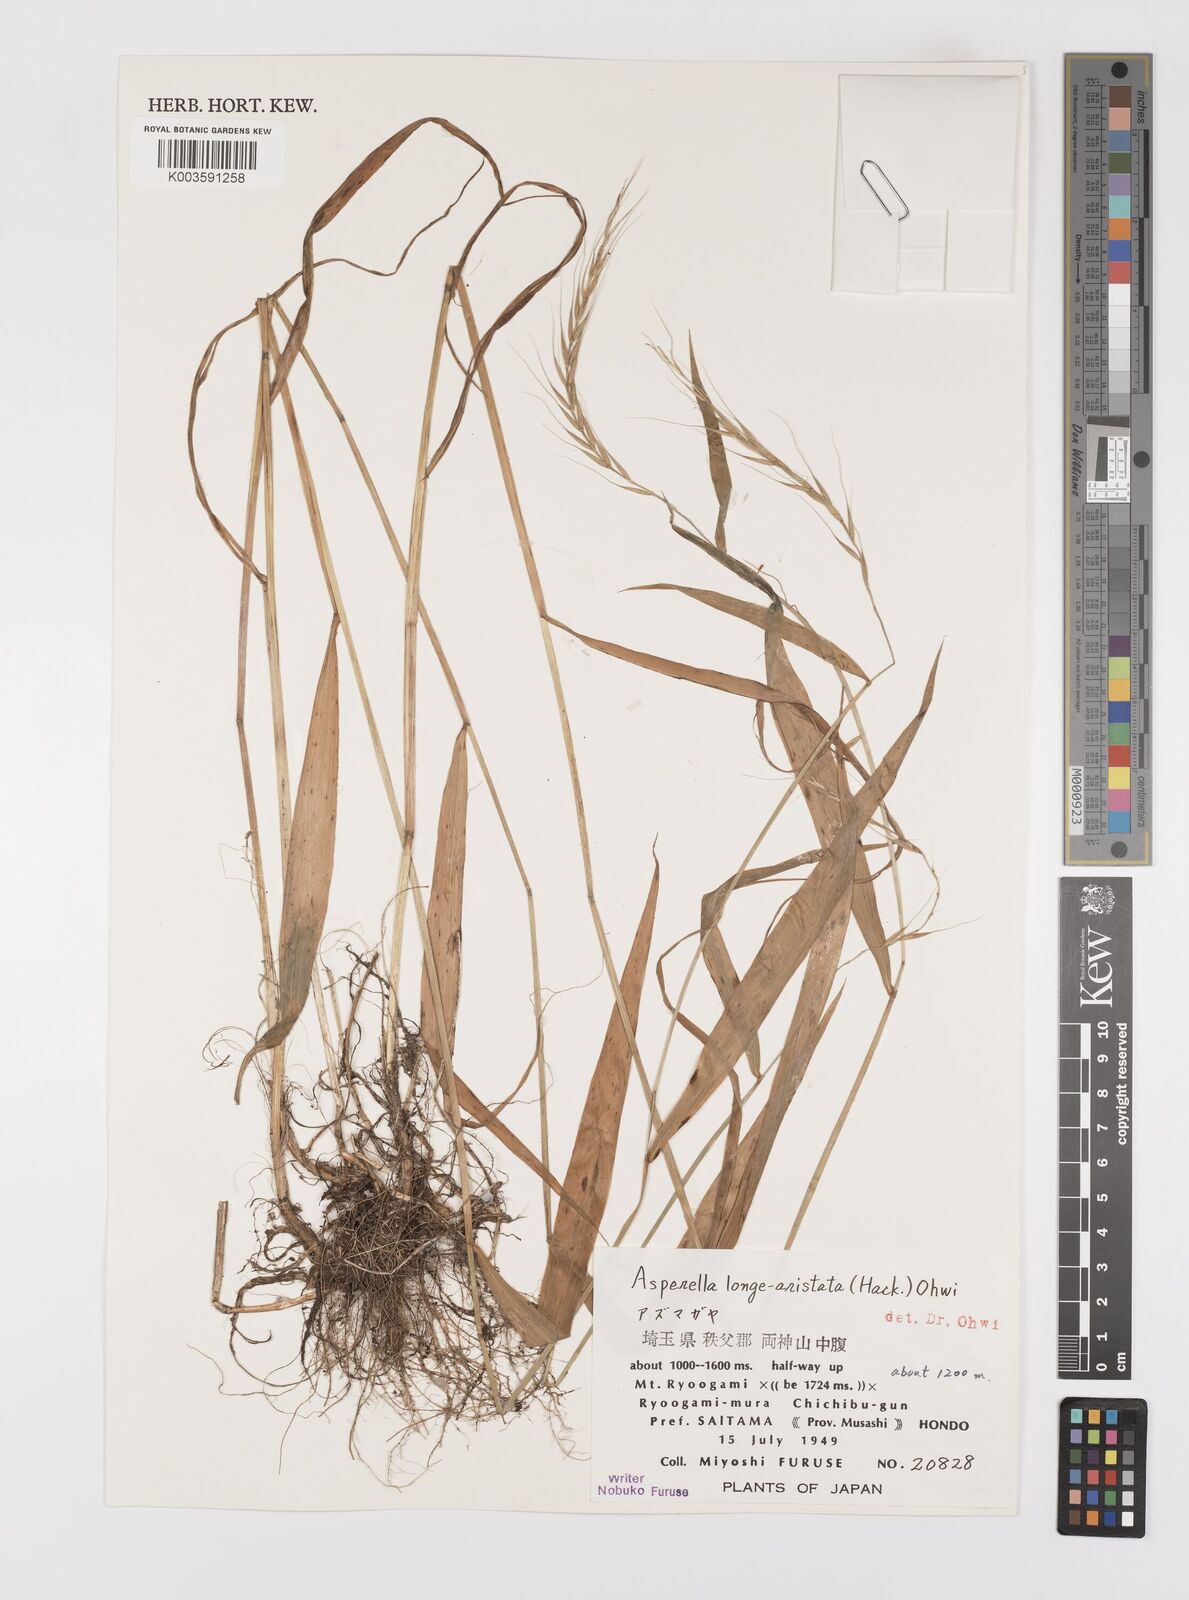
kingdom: Plantae
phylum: Tracheophyta
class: Liliopsida
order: Poales
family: Poaceae
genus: Leymus
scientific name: Leymus duthiei
